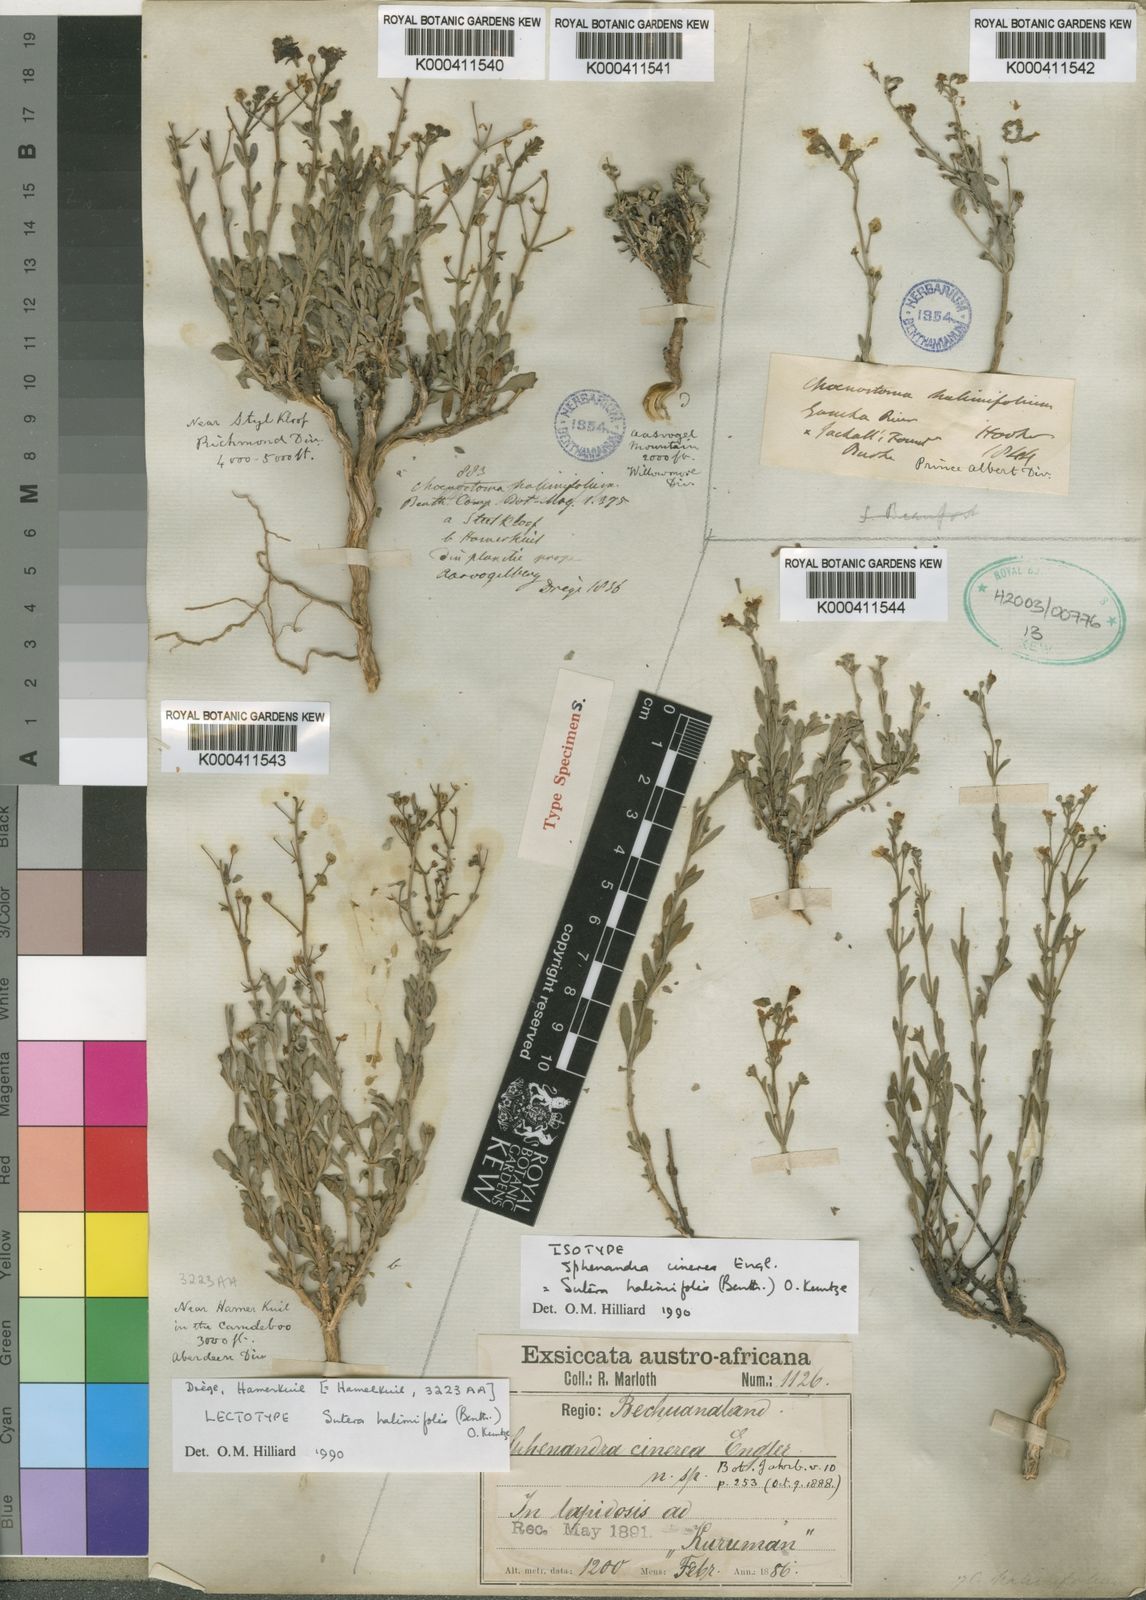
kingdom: Plantae
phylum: Tracheophyta
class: Magnoliopsida
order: Lamiales
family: Scrophulariaceae
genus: Chaenostoma
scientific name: Chaenostoma halimifolium
